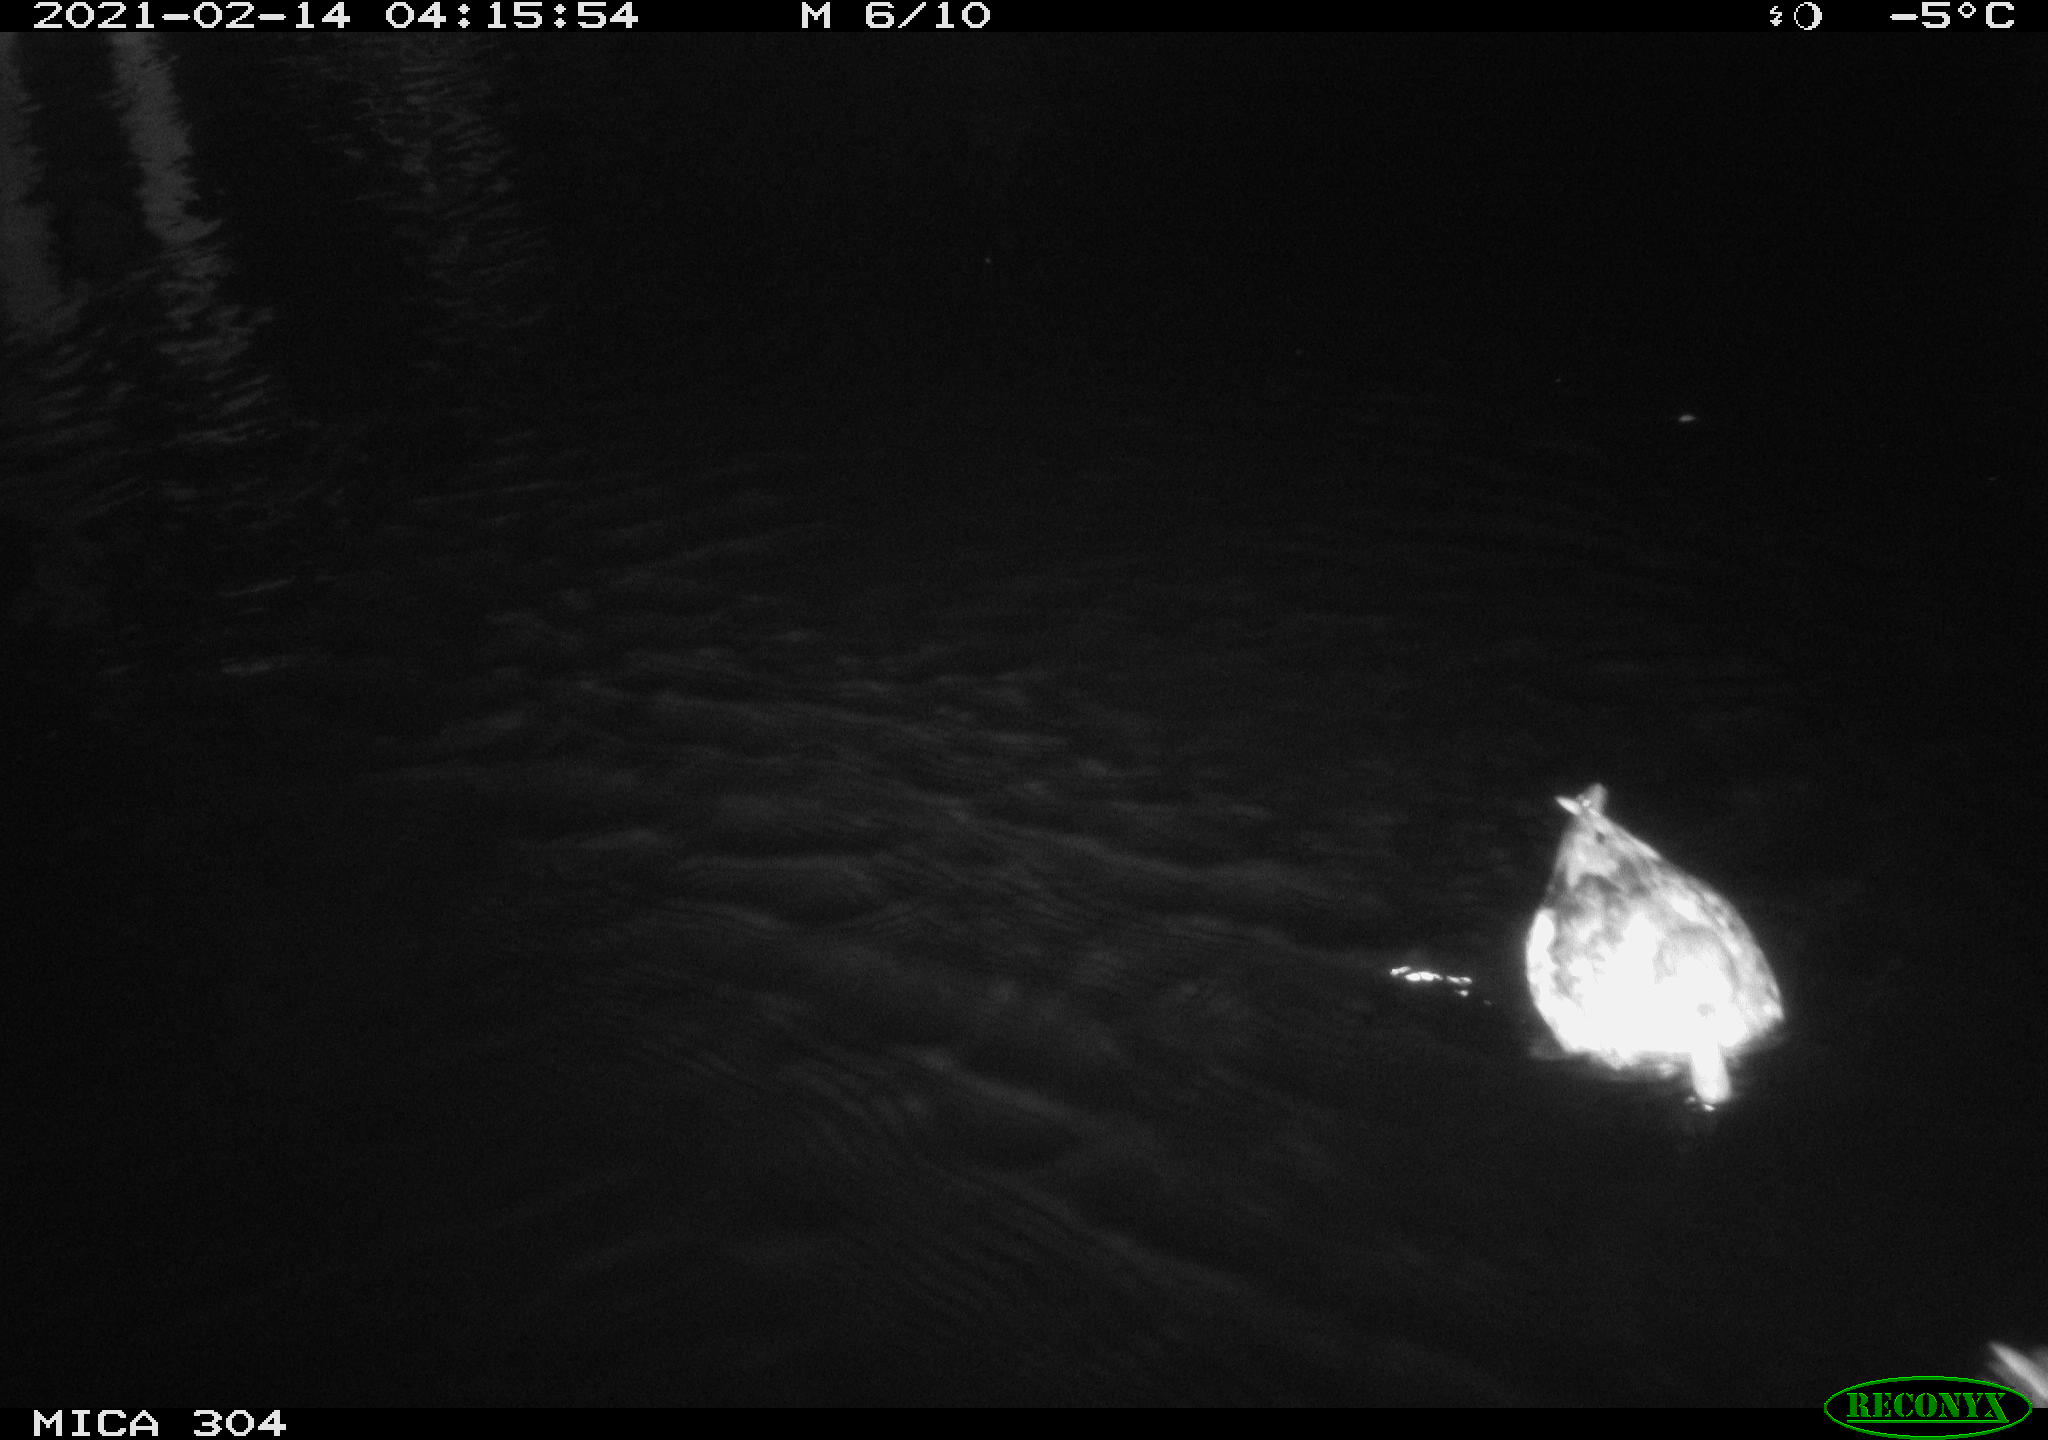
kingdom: Animalia
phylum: Chordata
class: Aves
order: Anseriformes
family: Anatidae
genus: Anas
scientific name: Anas platyrhynchos
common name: Mallard
